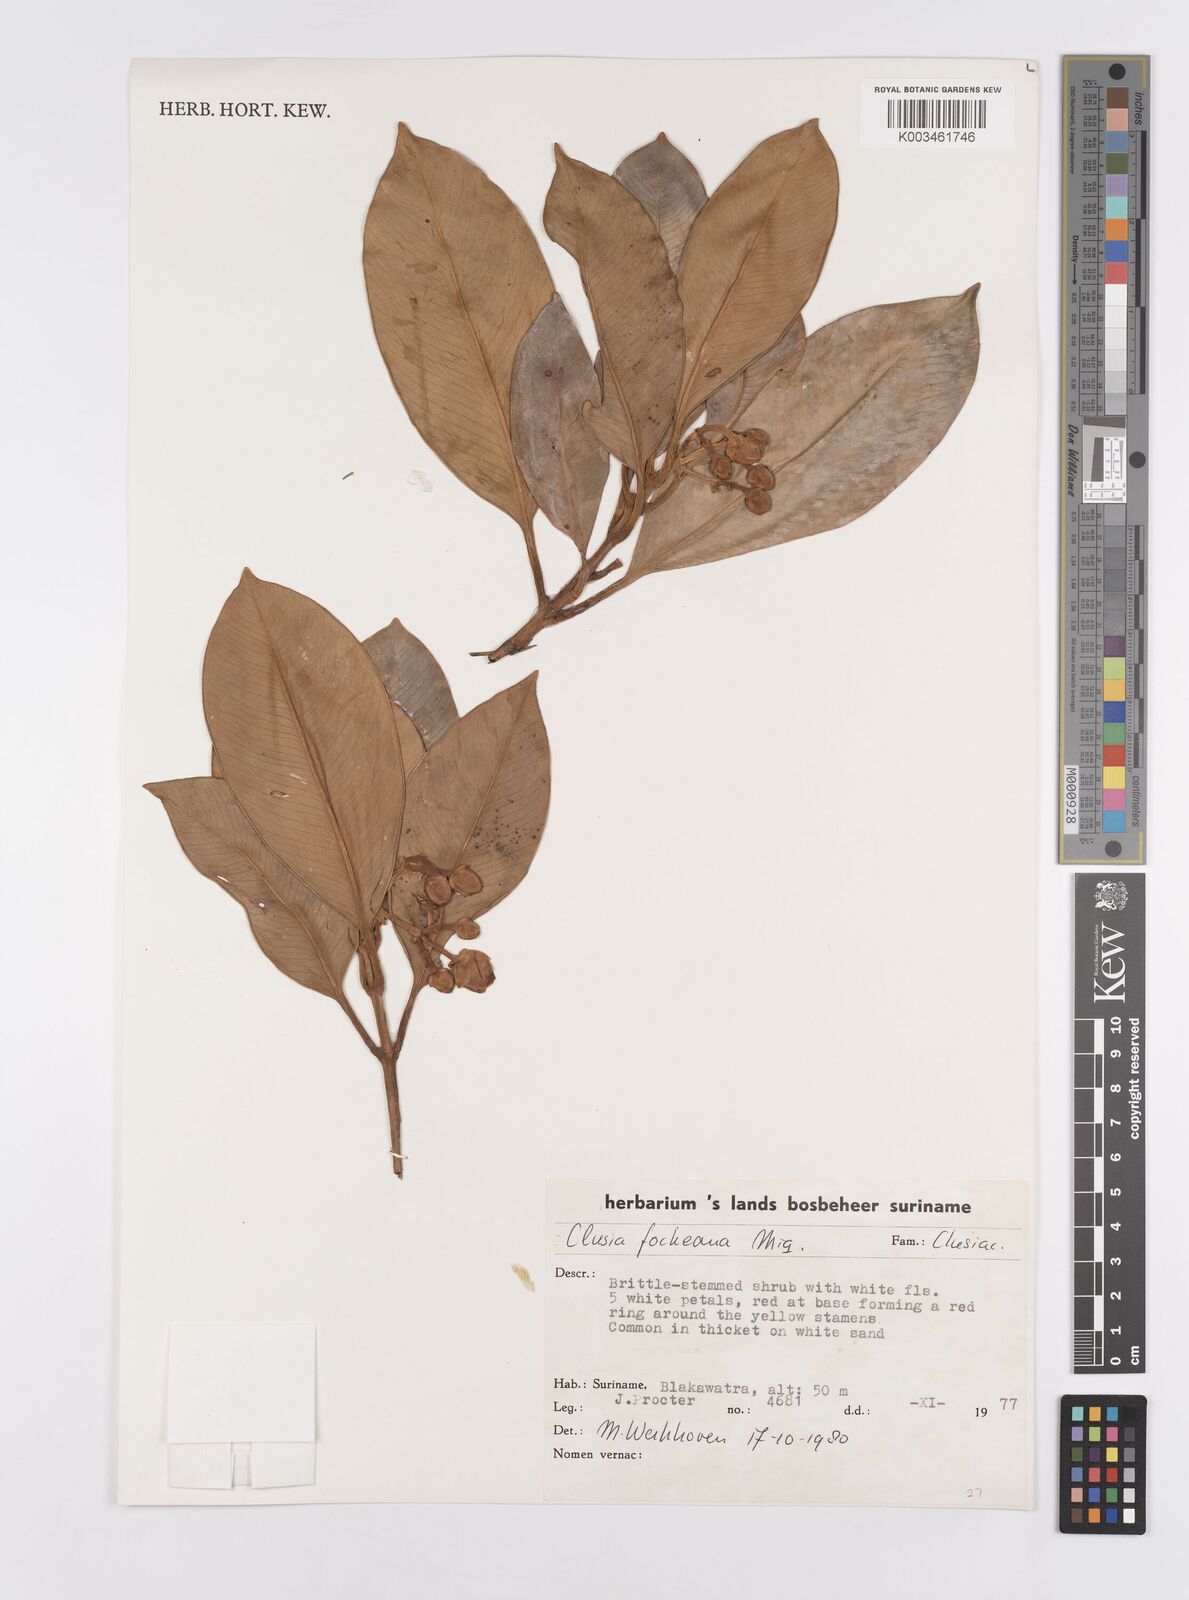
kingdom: Plantae
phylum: Tracheophyta
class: Magnoliopsida
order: Malpighiales
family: Clusiaceae
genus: Clusia
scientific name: Clusia fockeana
